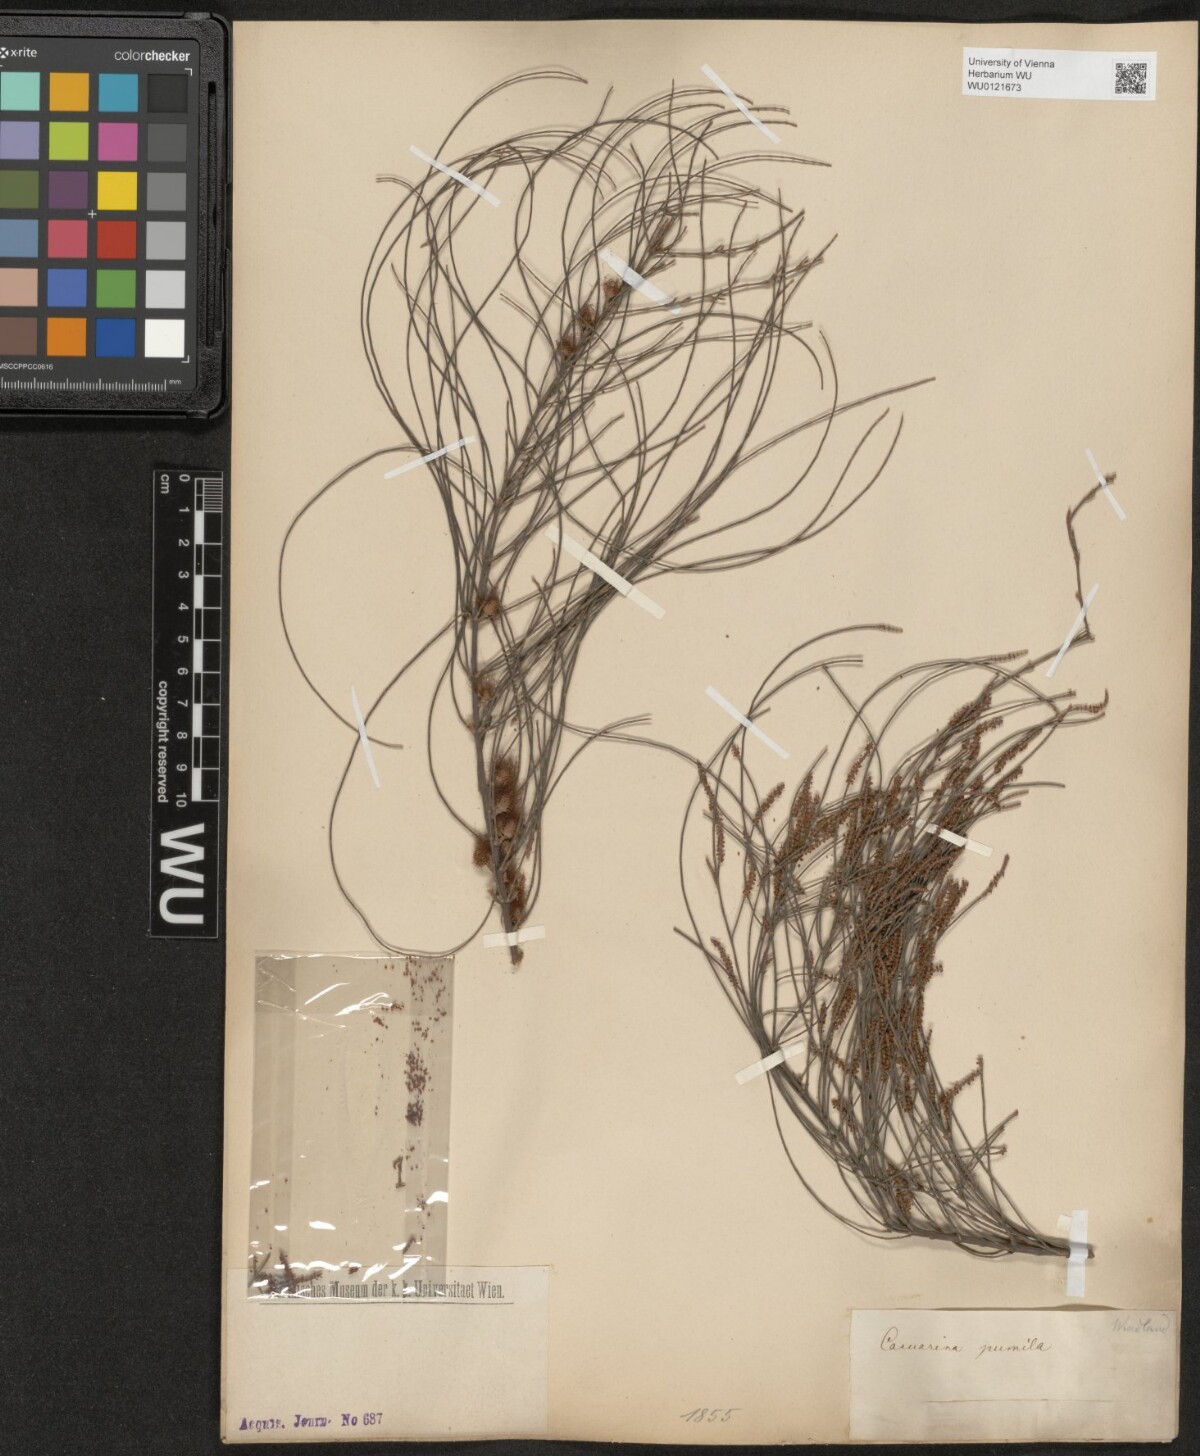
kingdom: Plantae
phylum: Tracheophyta
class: Magnoliopsida
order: Fagales
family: Casuarinaceae
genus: Allocasuarina
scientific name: Allocasuarina paludosa
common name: Scrub she-oak
